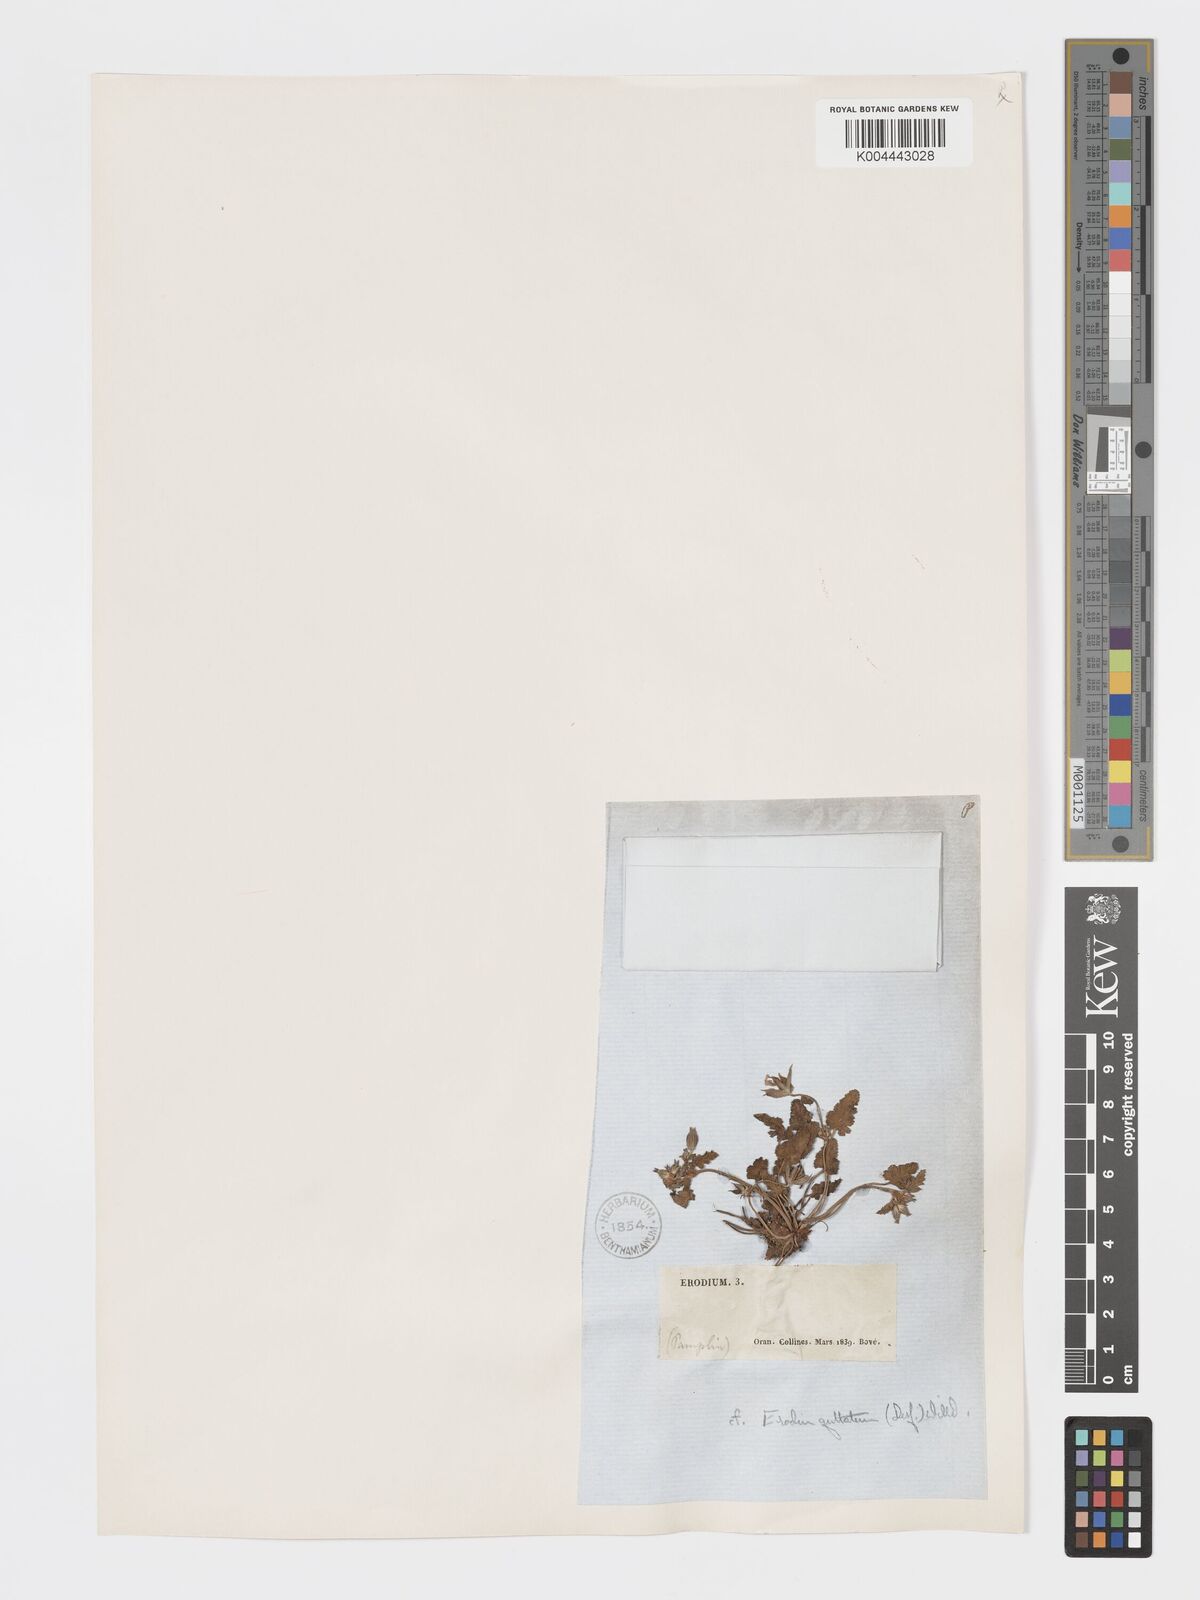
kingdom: Plantae
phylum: Tracheophyta
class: Magnoliopsida
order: Geraniales
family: Geraniaceae
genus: Erodium
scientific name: Erodium guttatum
